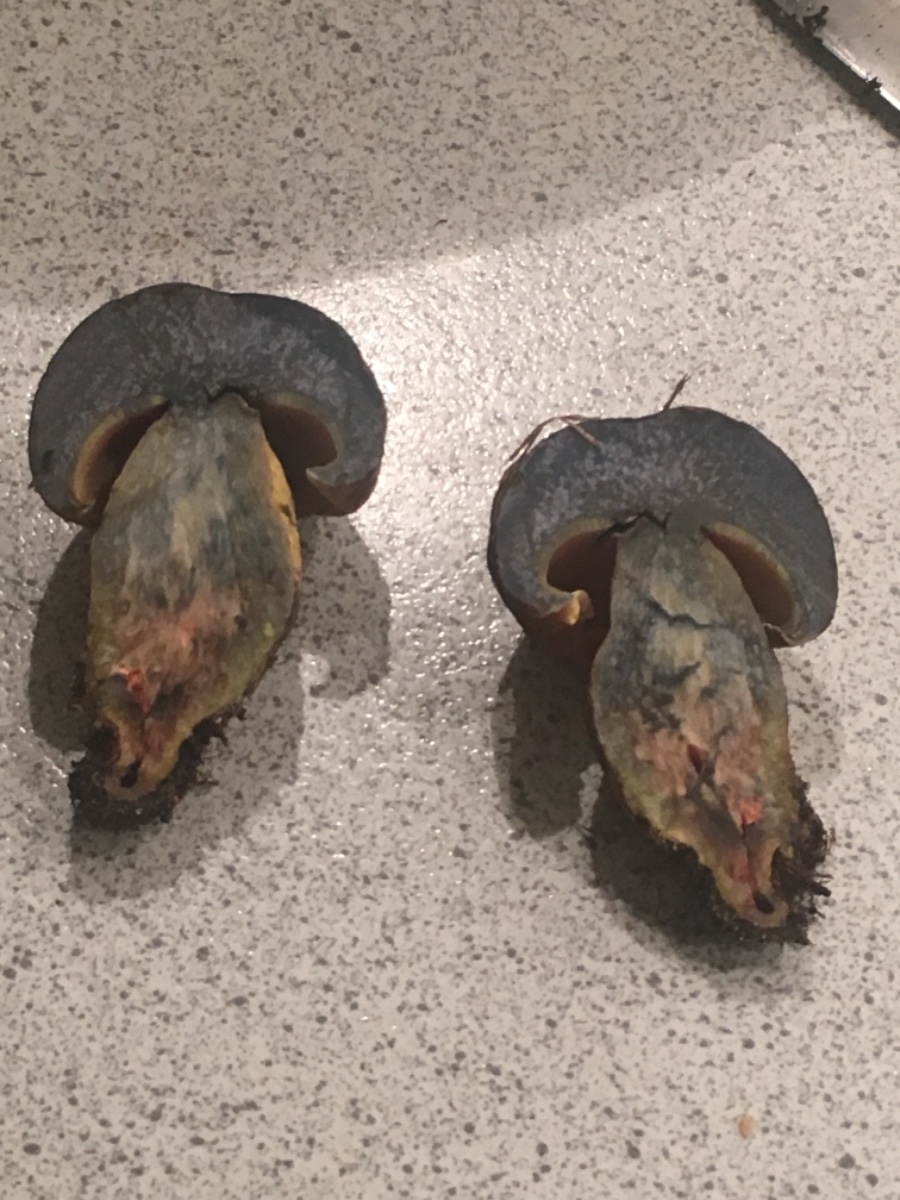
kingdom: Fungi
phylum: Basidiomycota
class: Agaricomycetes
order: Boletales
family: Boletaceae
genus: Cyanoboletus
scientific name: Cyanoboletus pulverulentus
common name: sortblånende rørhat
